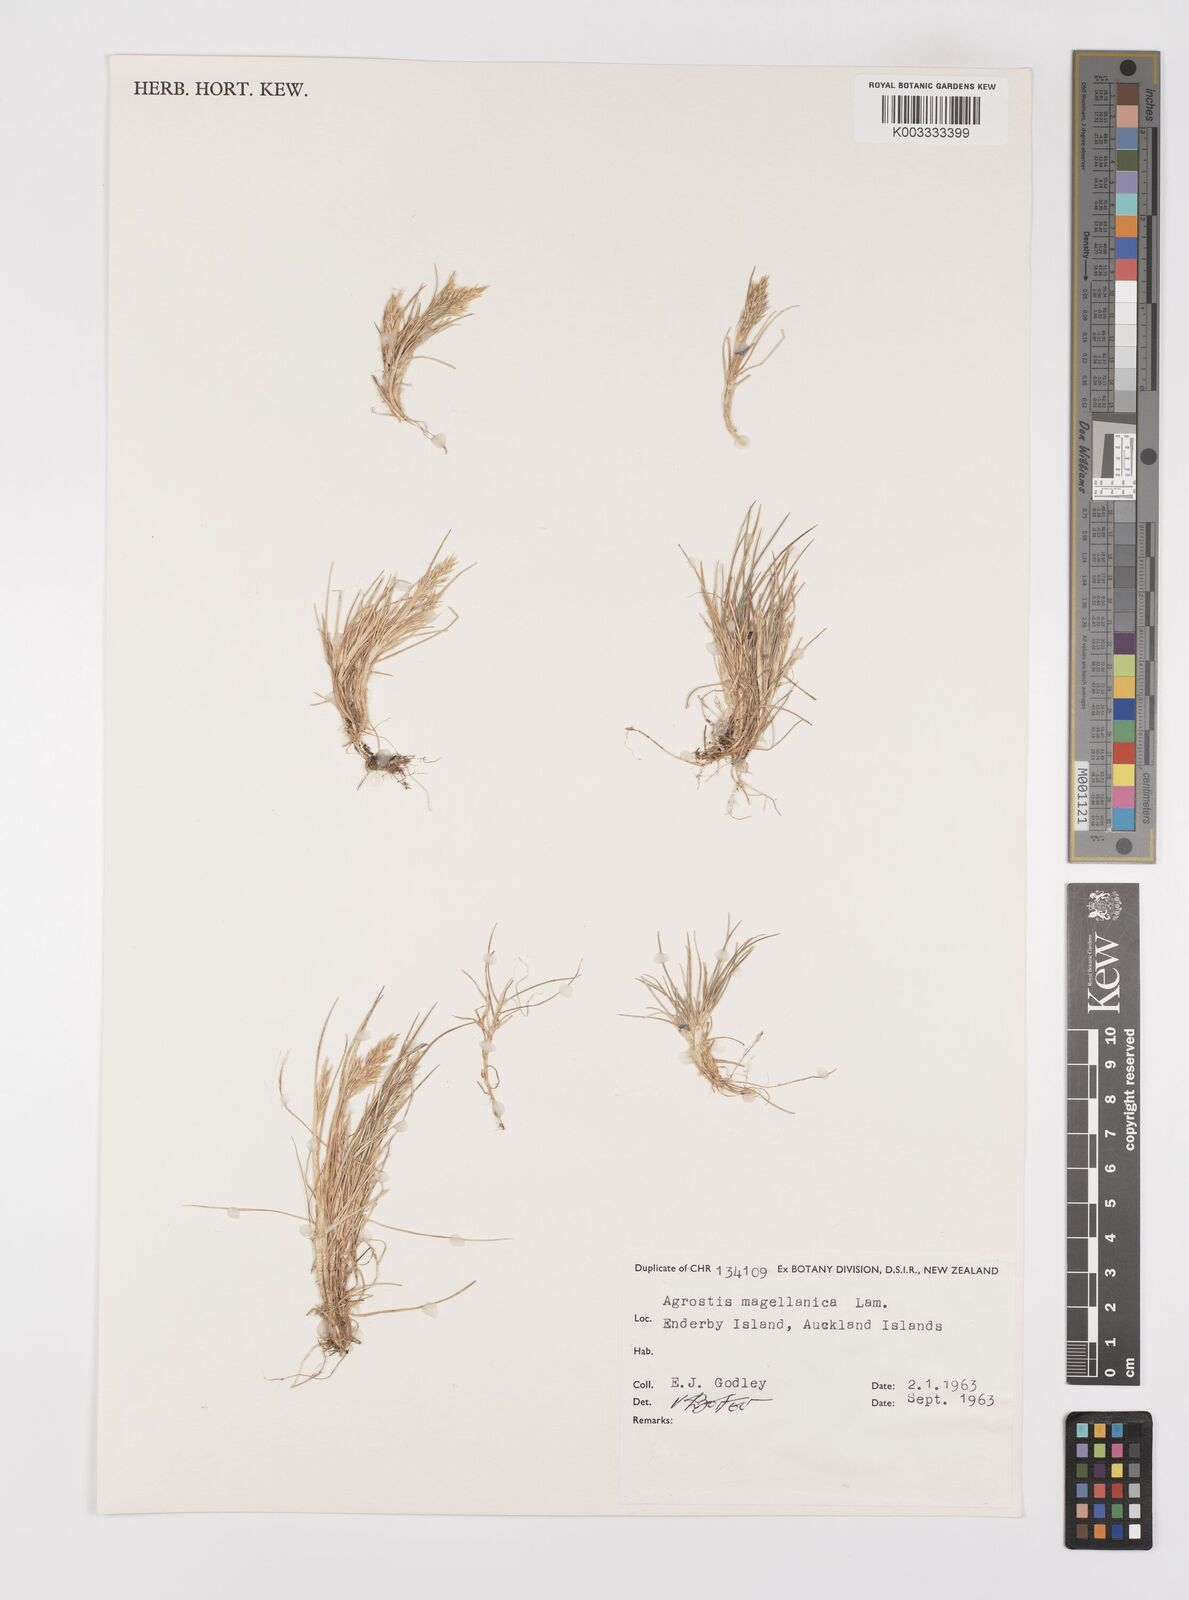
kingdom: Plantae
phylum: Tracheophyta
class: Liliopsida
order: Poales
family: Poaceae
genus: Polypogon
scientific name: Polypogon magellanicus
